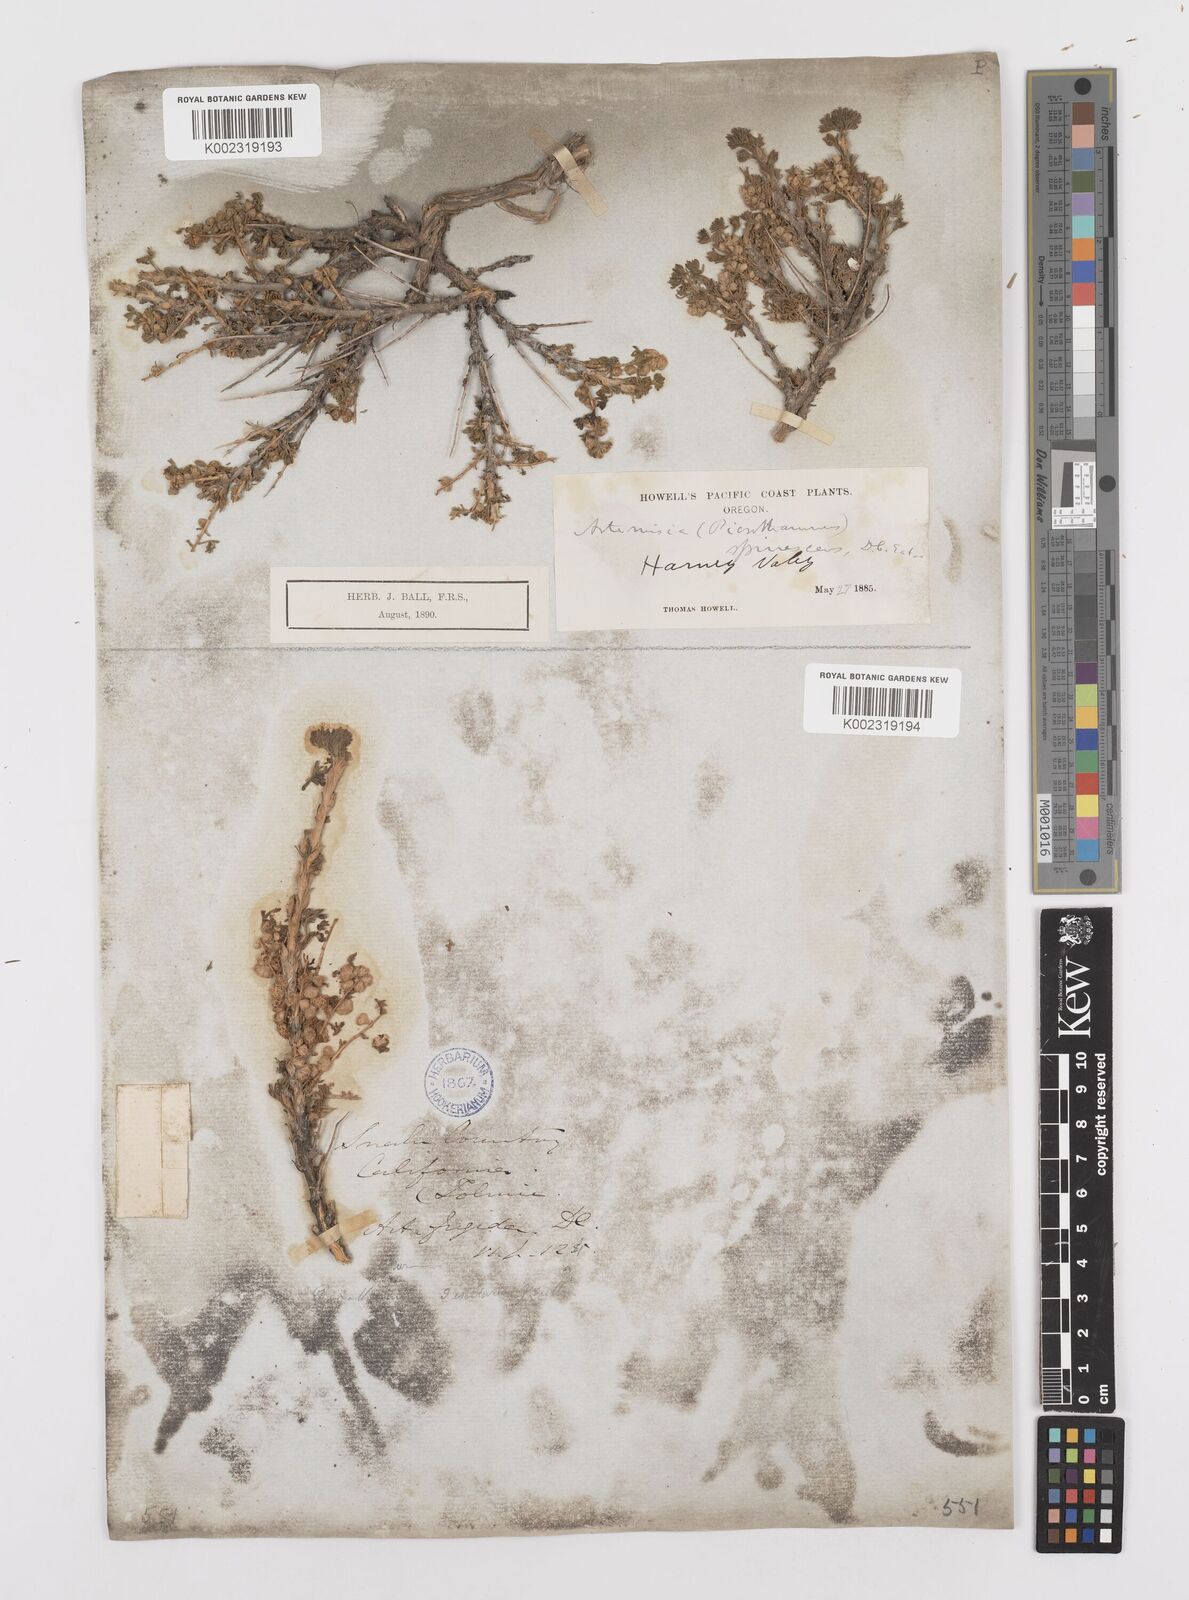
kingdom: Plantae
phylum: Tracheophyta
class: Magnoliopsida
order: Asterales
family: Asteraceae
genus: Artemisia
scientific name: Artemisia spinescens
